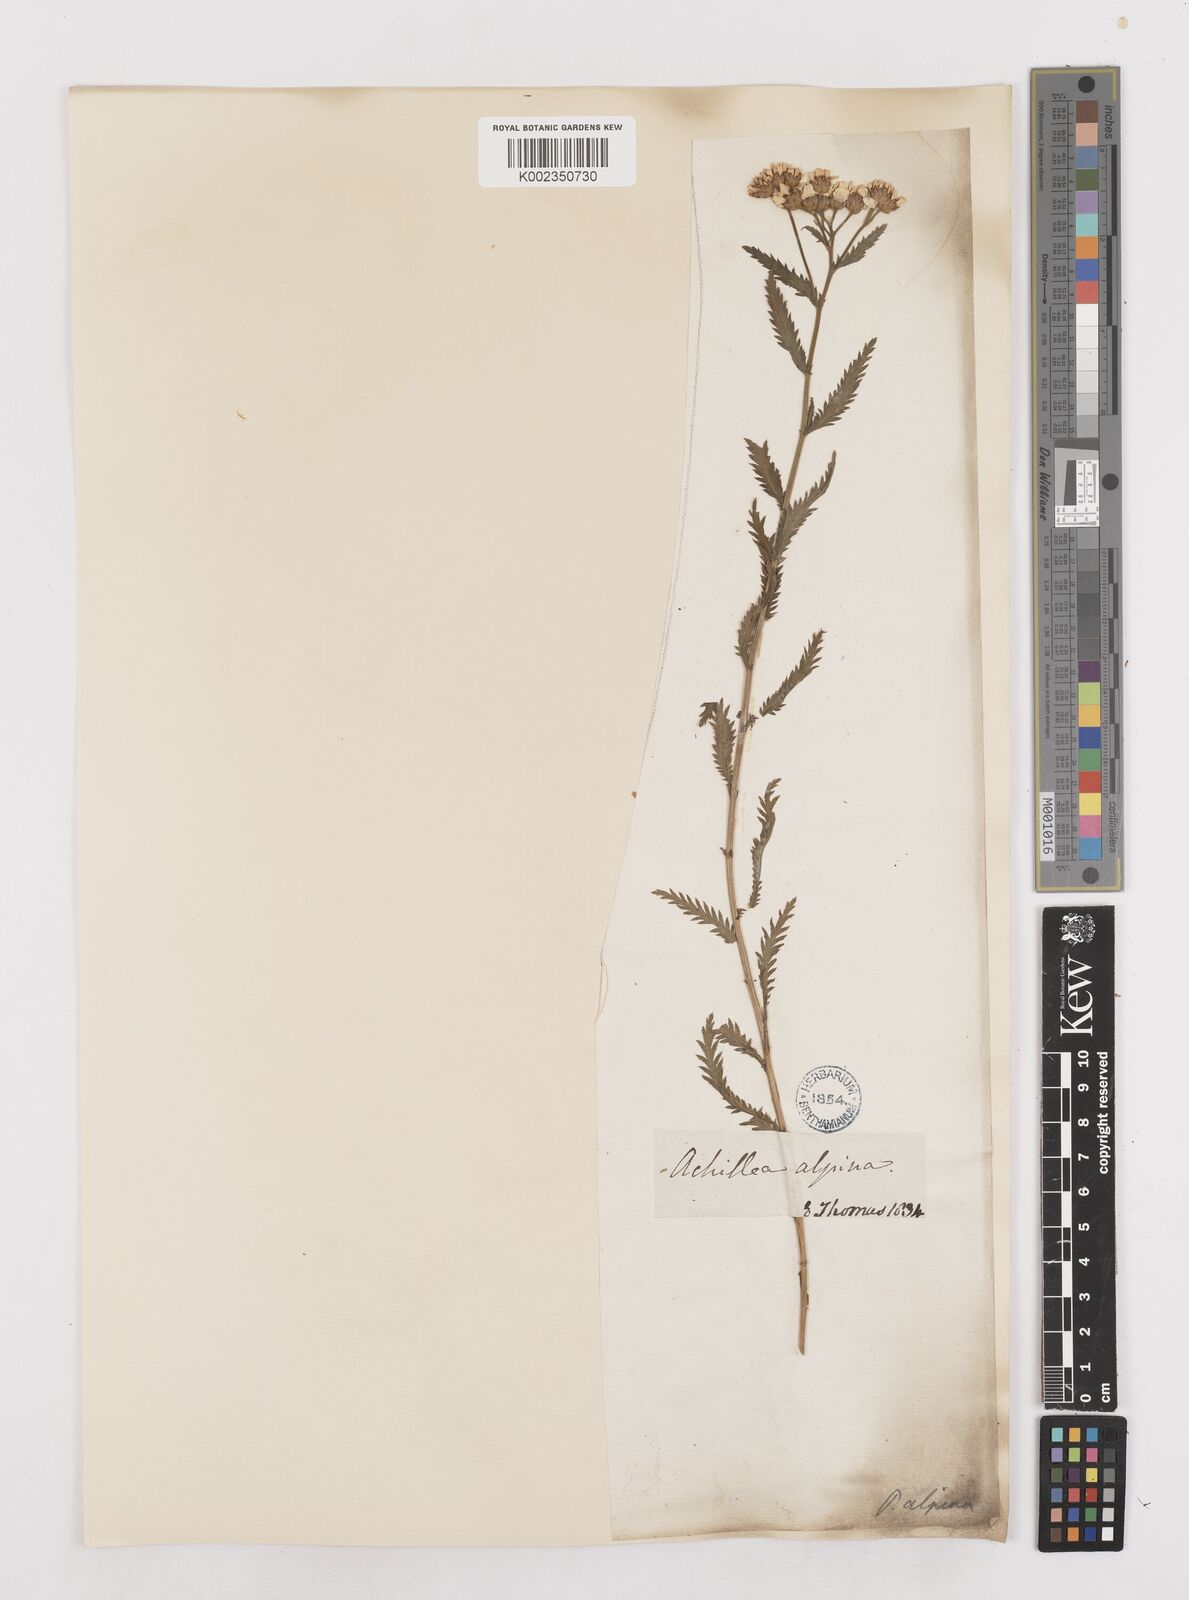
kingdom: Plantae
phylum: Tracheophyta
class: Magnoliopsida
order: Asterales
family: Asteraceae
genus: Achillea
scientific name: Achillea impatiens
